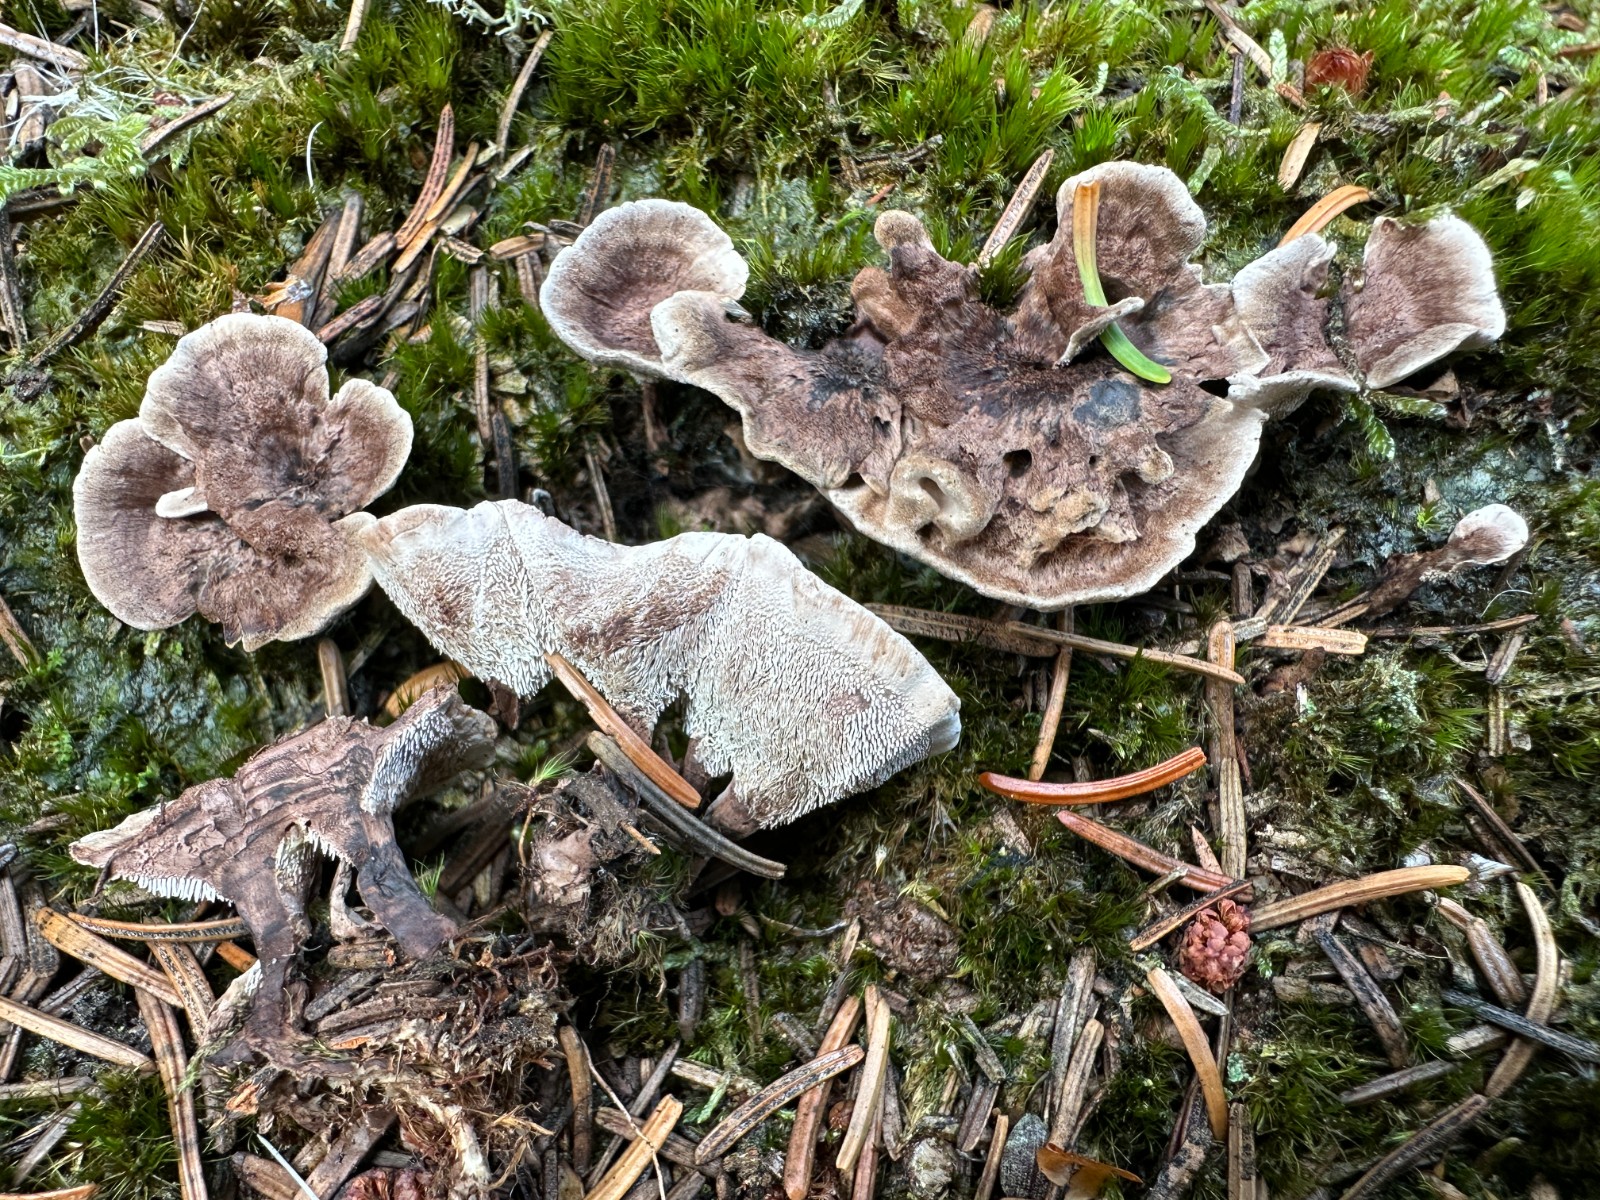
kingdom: Fungi
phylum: Basidiomycota
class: Agaricomycetes
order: Thelephorales
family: Thelephoraceae
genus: Phellodon
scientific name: Phellodon tomentosus
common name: tragtformet duftpigsvamp
